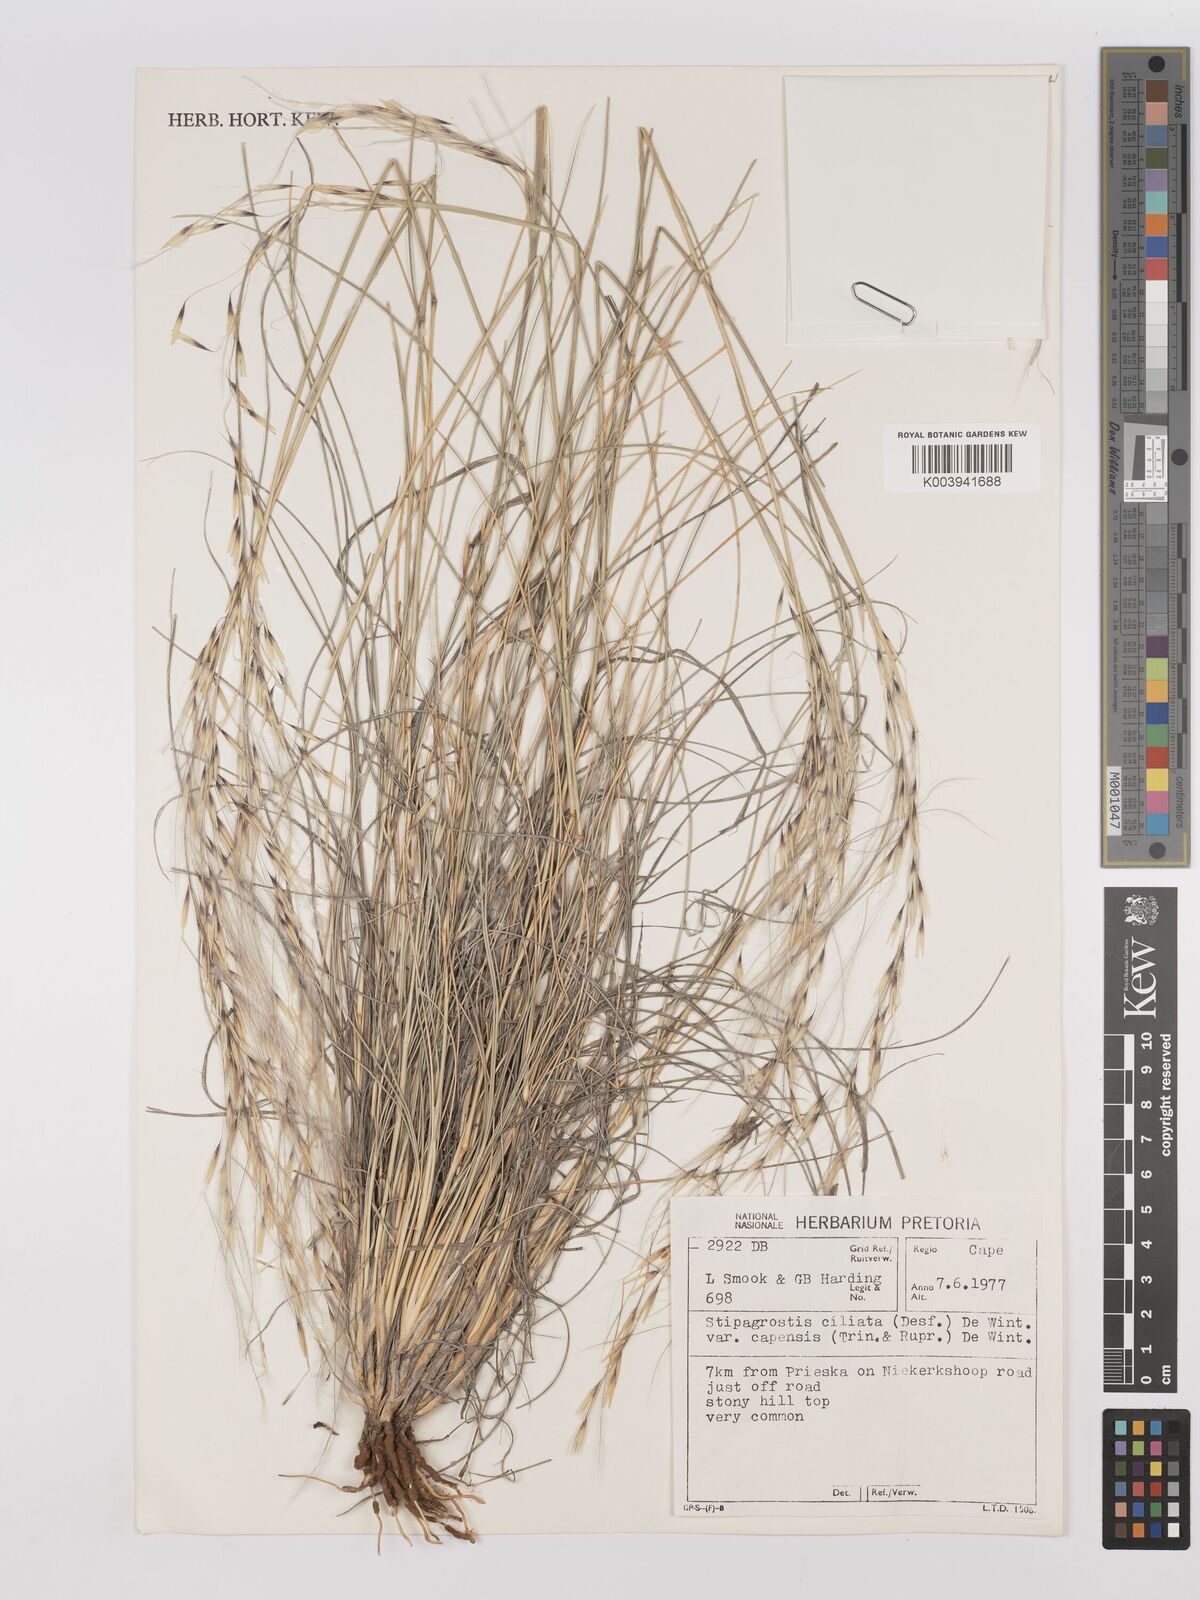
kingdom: Plantae
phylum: Tracheophyta
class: Liliopsida
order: Poales
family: Poaceae
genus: Stipagrostis
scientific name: Stipagrostis ciliata
